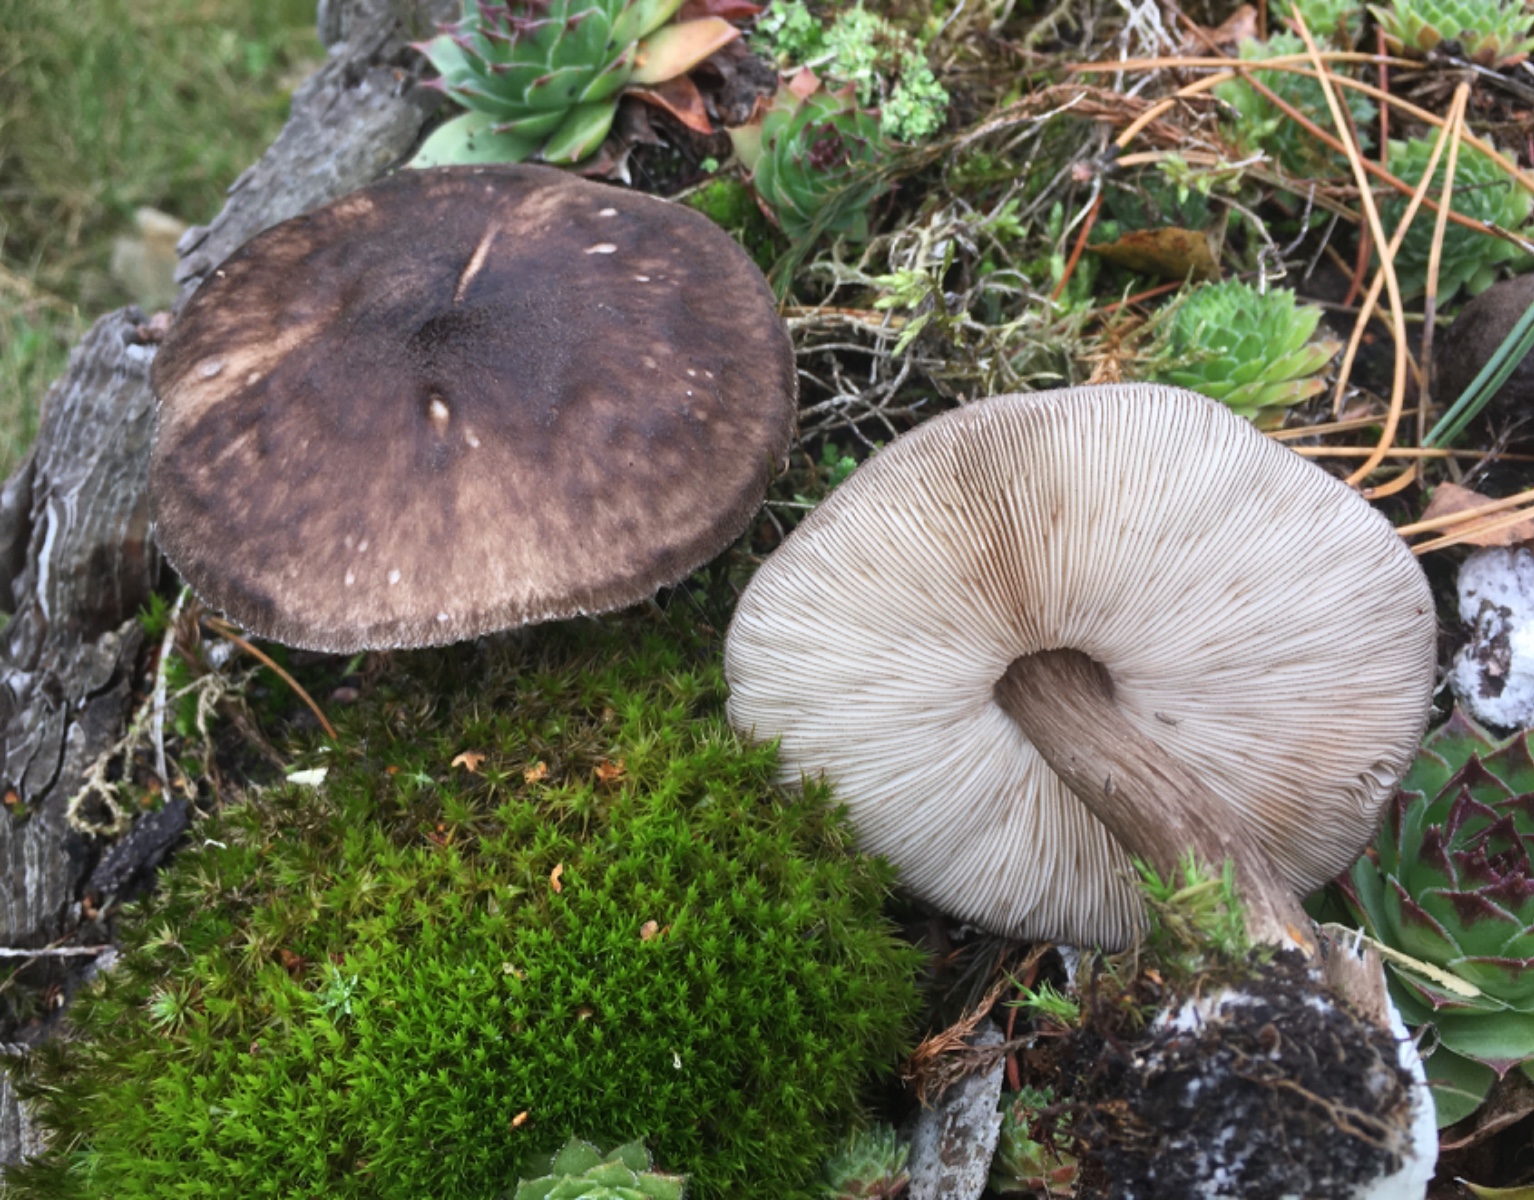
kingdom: Fungi
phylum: Basidiomycota
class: Agaricomycetes
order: Agaricales
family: Pluteaceae
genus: Pluteus
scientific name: Pluteus atromarginatus
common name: sortrandet skærmhat
